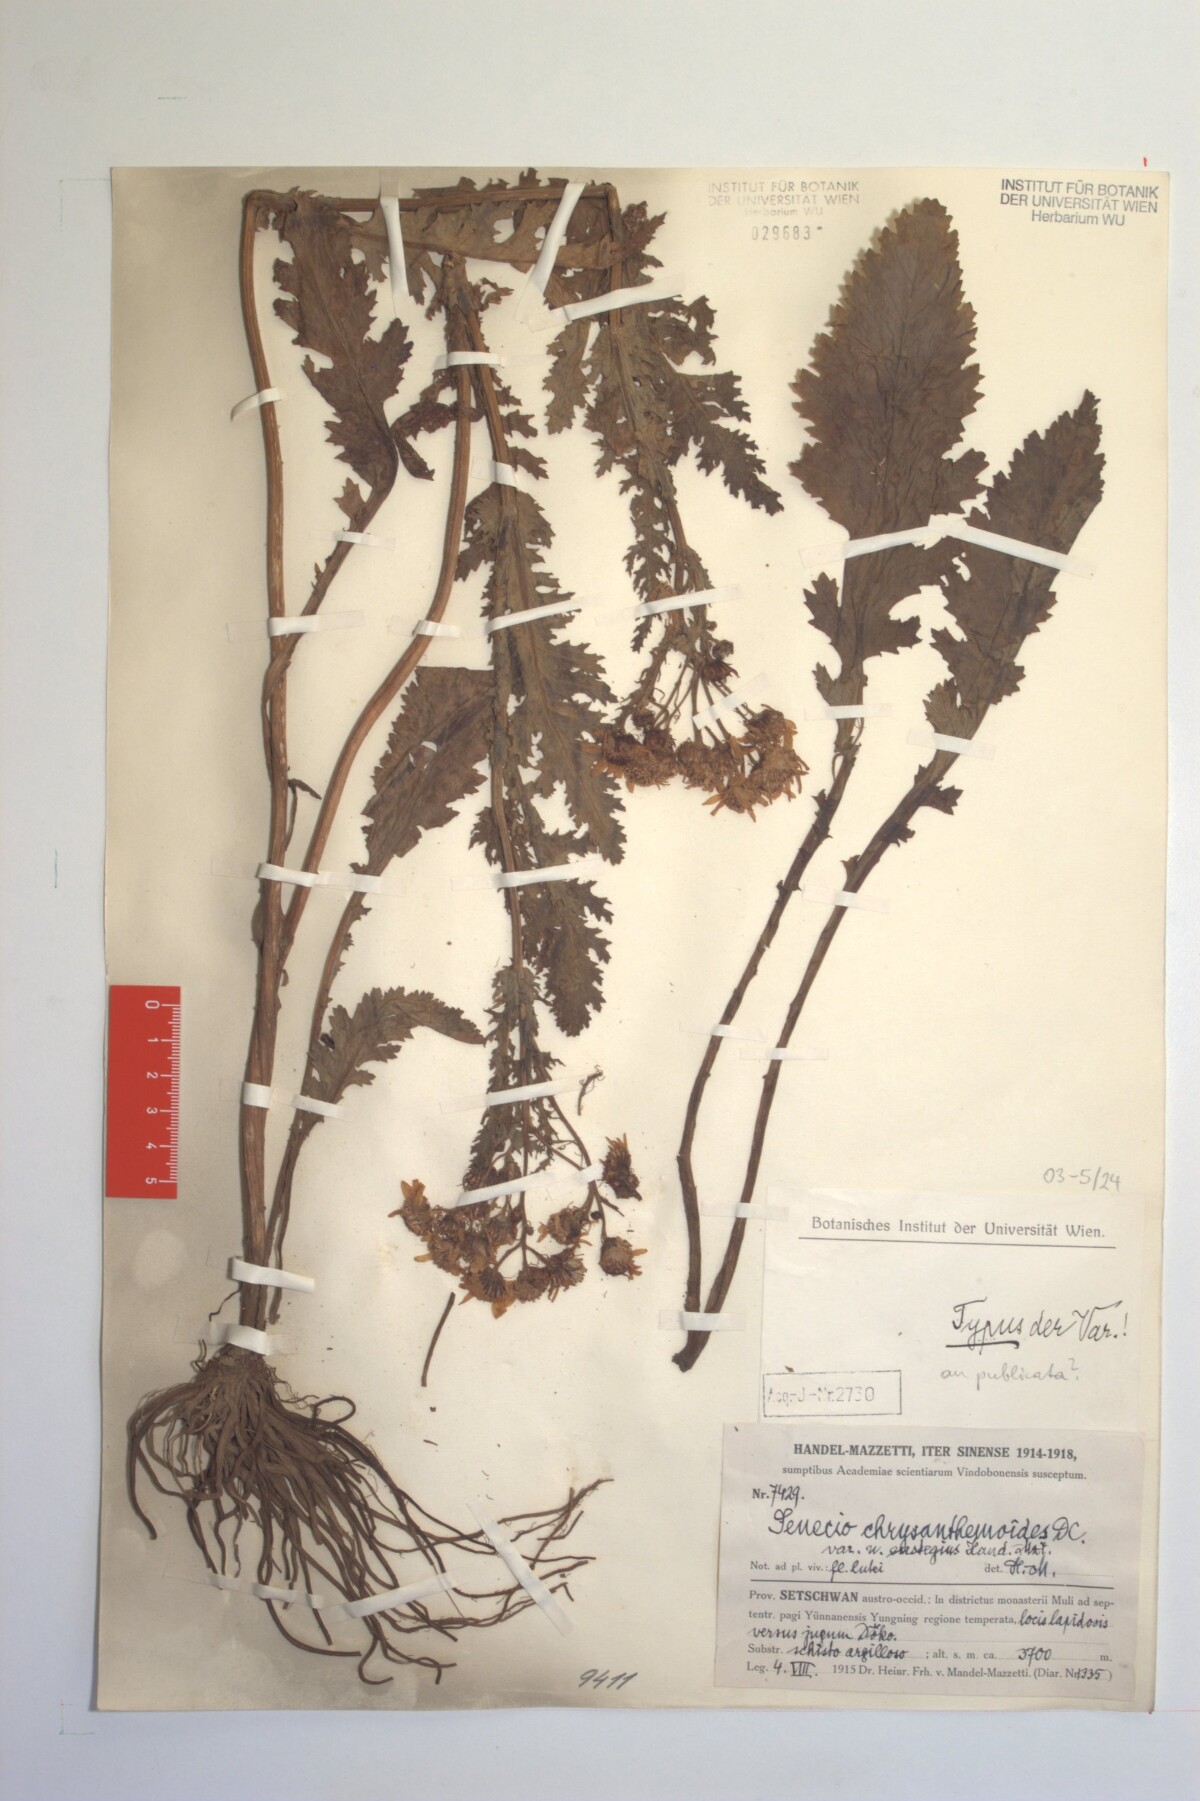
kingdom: Plantae
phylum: Tracheophyta
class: Magnoliopsida
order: Asterales
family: Asteraceae
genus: Jacobaea
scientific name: Jacobaea analoga
